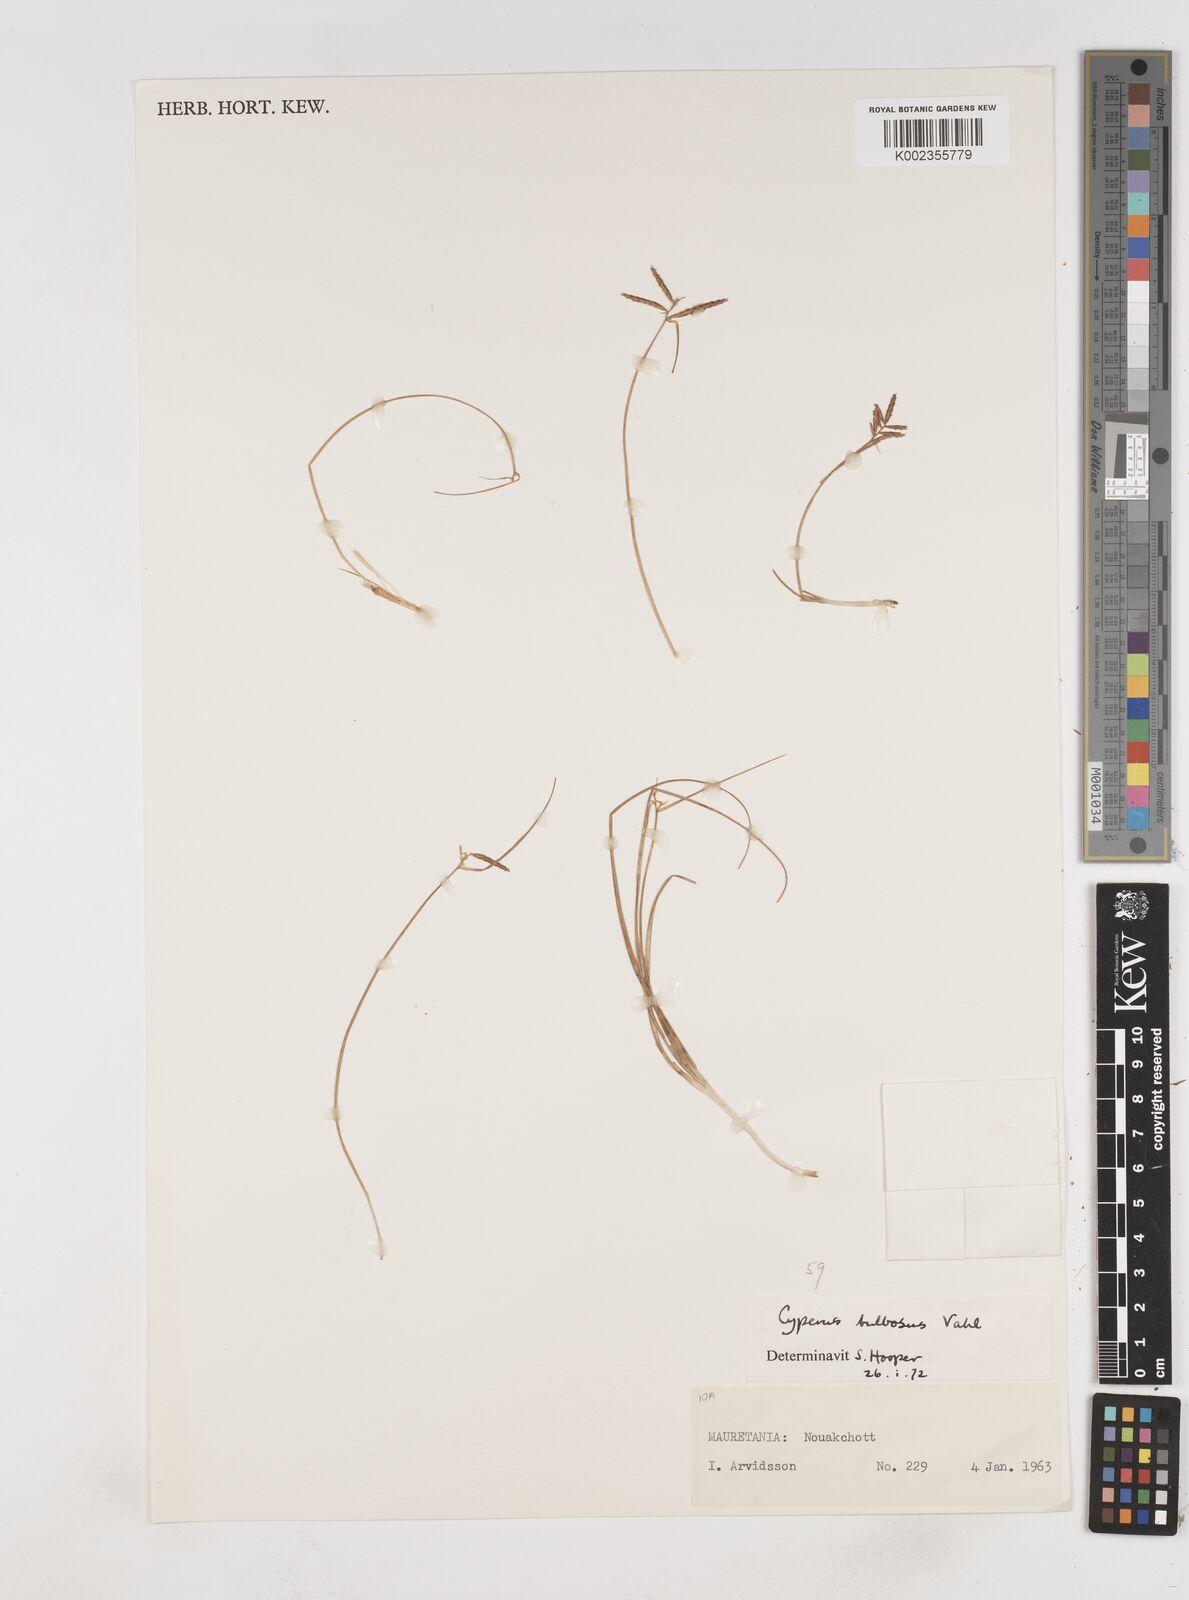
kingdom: Plantae
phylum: Tracheophyta
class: Liliopsida
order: Poales
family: Cyperaceae
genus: Cyperus
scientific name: Cyperus bulbosus
